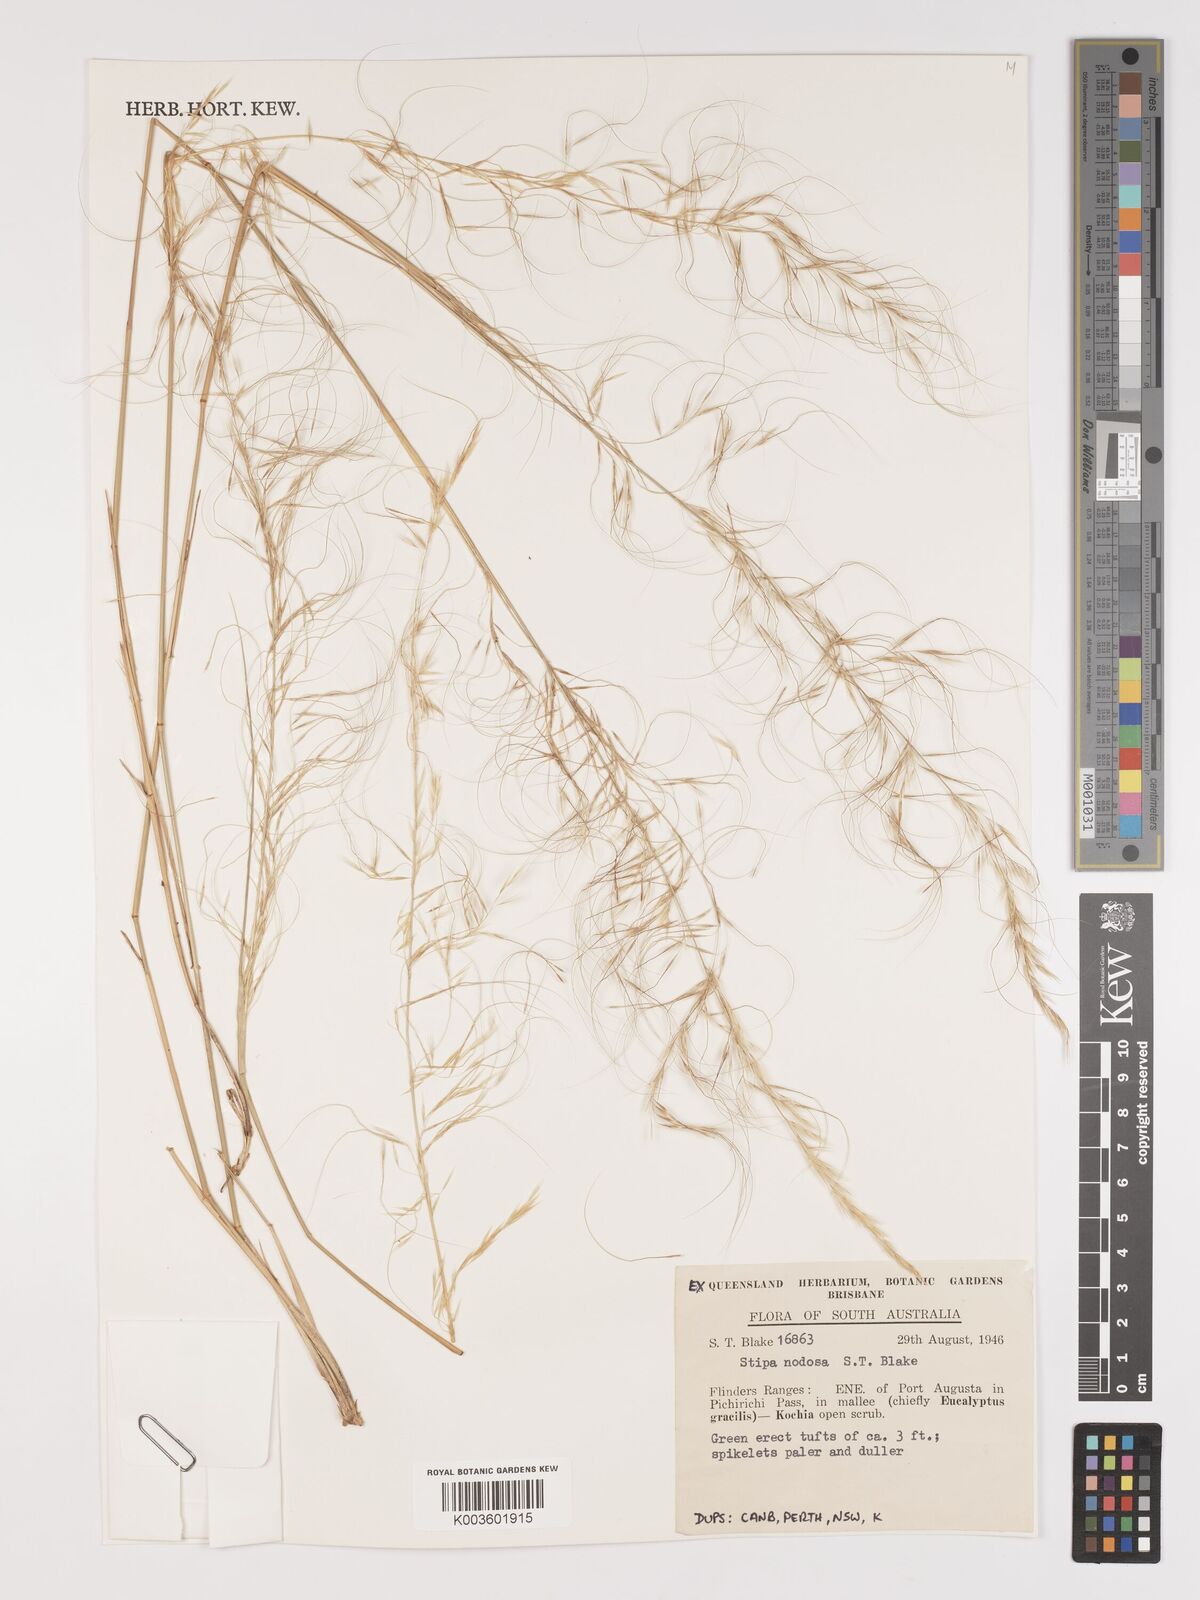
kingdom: Plantae
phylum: Tracheophyta
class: Liliopsida
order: Poales
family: Poaceae
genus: Austrostipa
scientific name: Austrostipa nodosa
